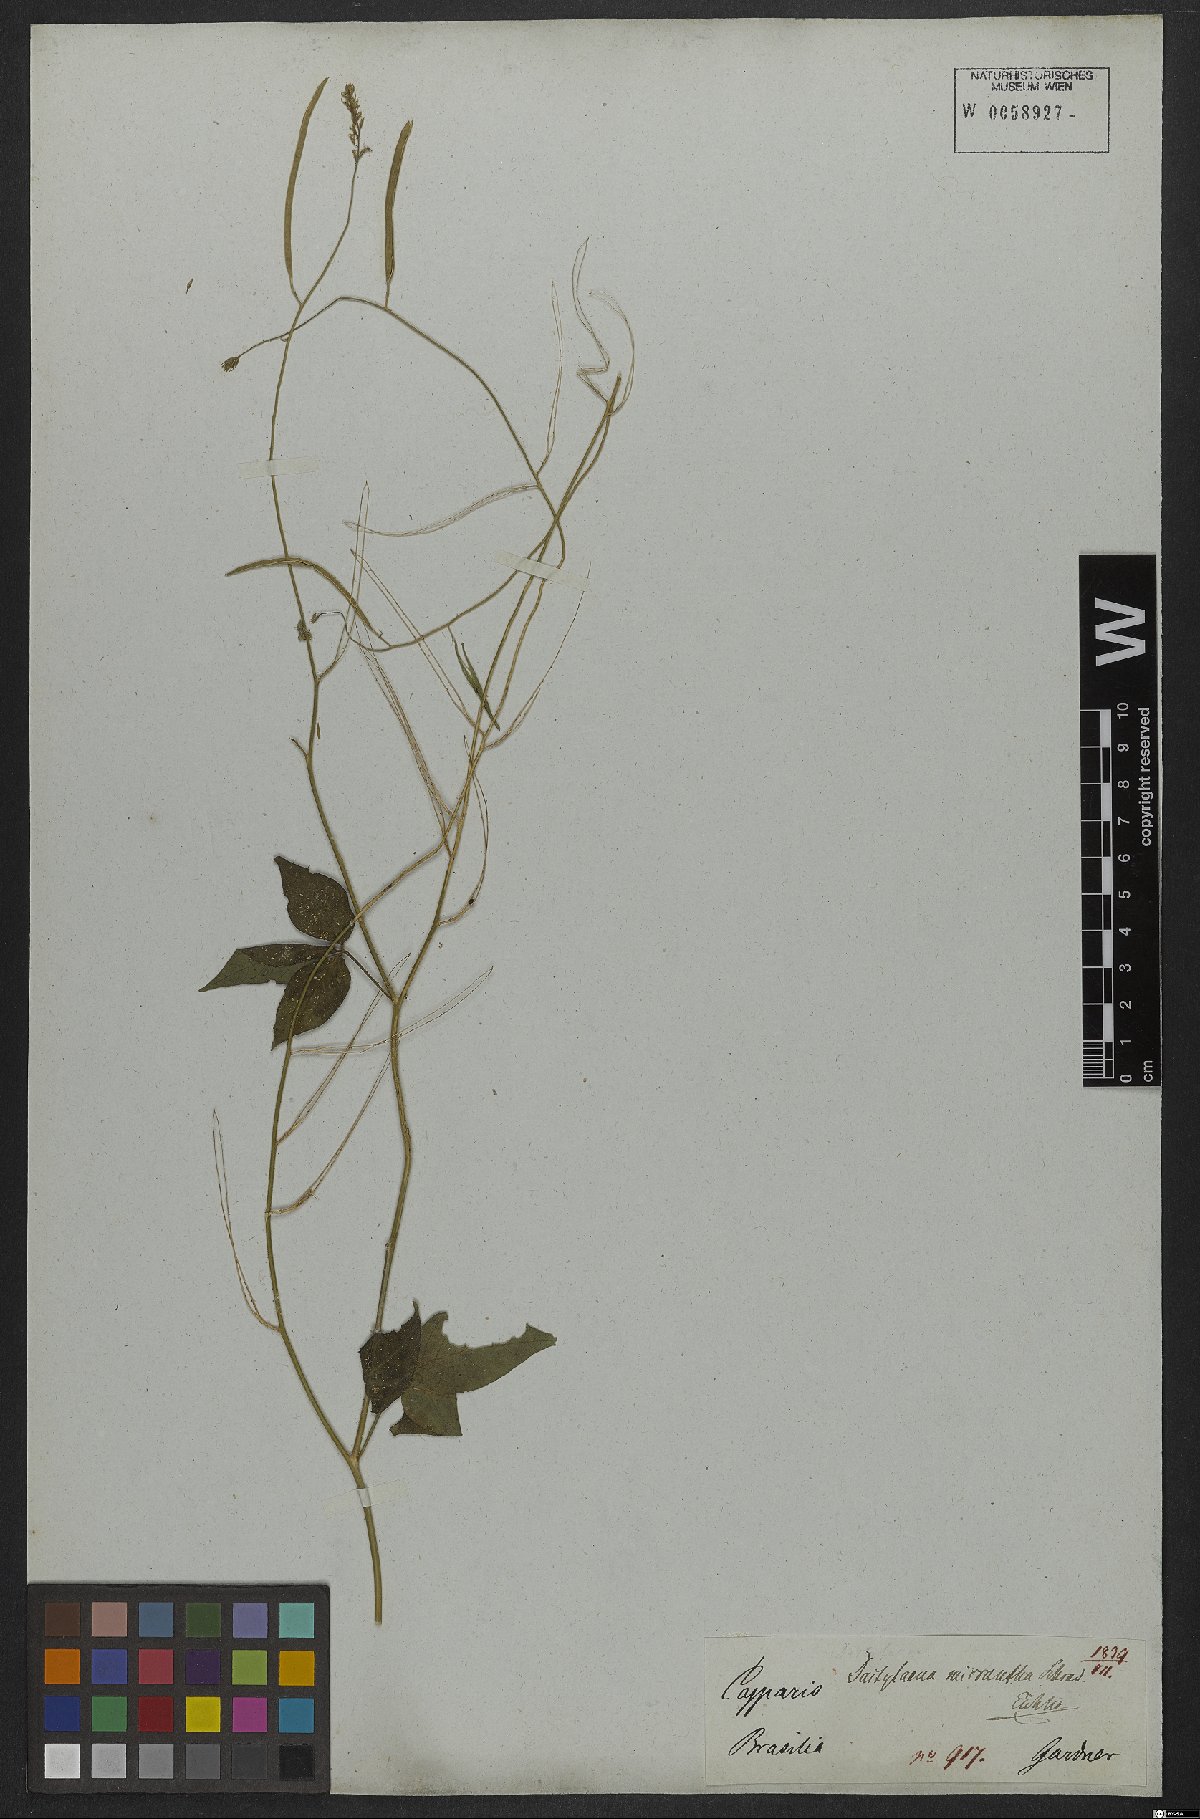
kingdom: Plantae
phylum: Tracheophyta
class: Magnoliopsida
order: Brassicales
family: Cleomaceae
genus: Dactylaena
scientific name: Dactylaena monandra
